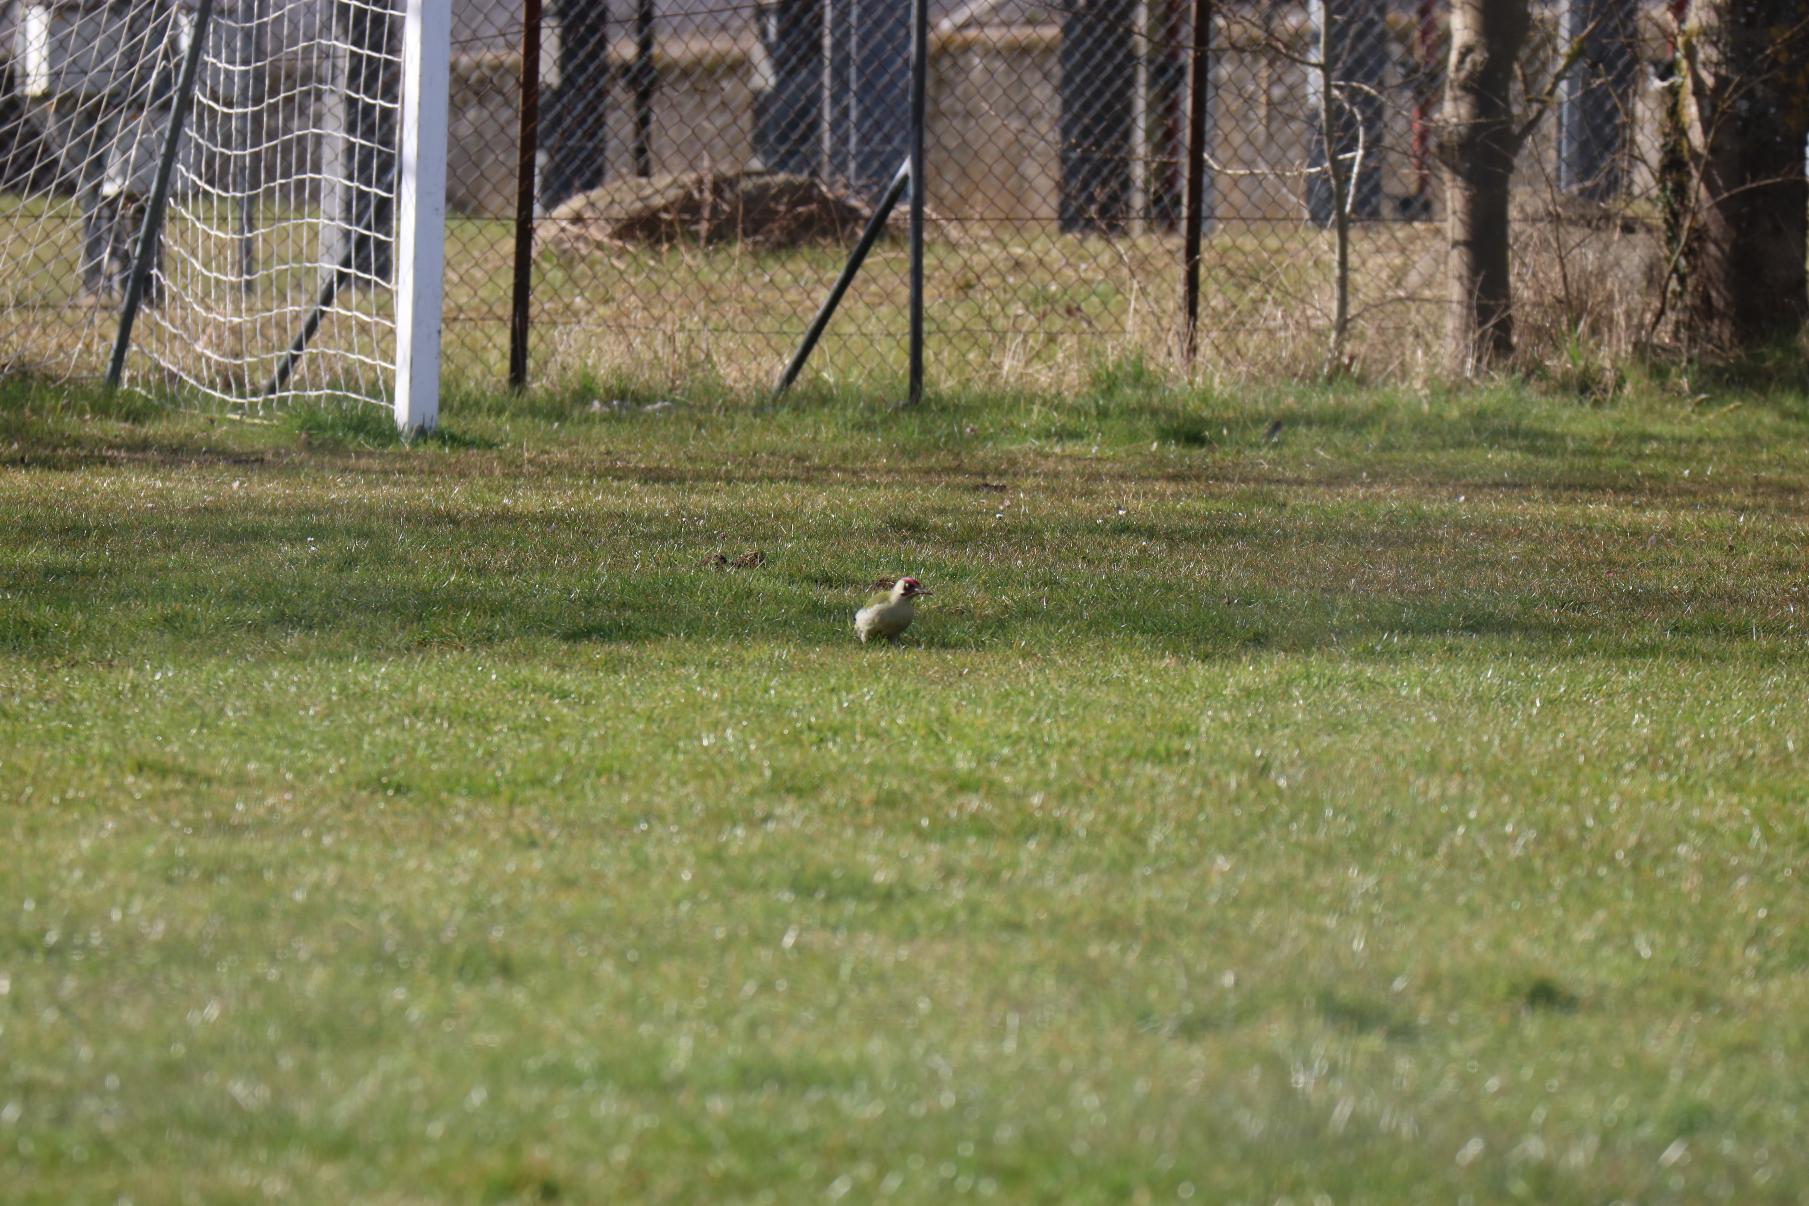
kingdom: Animalia
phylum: Chordata
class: Aves
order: Piciformes
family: Picidae
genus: Picus
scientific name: Picus viridis
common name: Grønspætte
